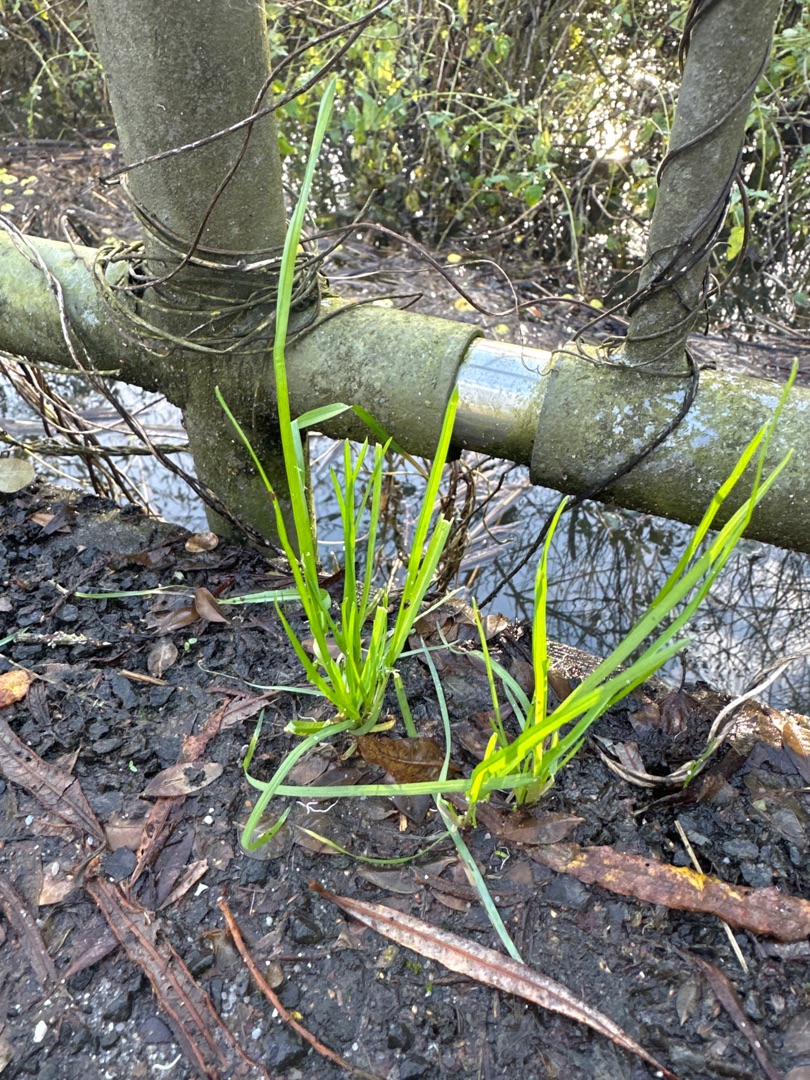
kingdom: Plantae
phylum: Tracheophyta
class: Liliopsida
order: Poales
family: Poaceae
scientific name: Poaceae
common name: Græsfamilien
